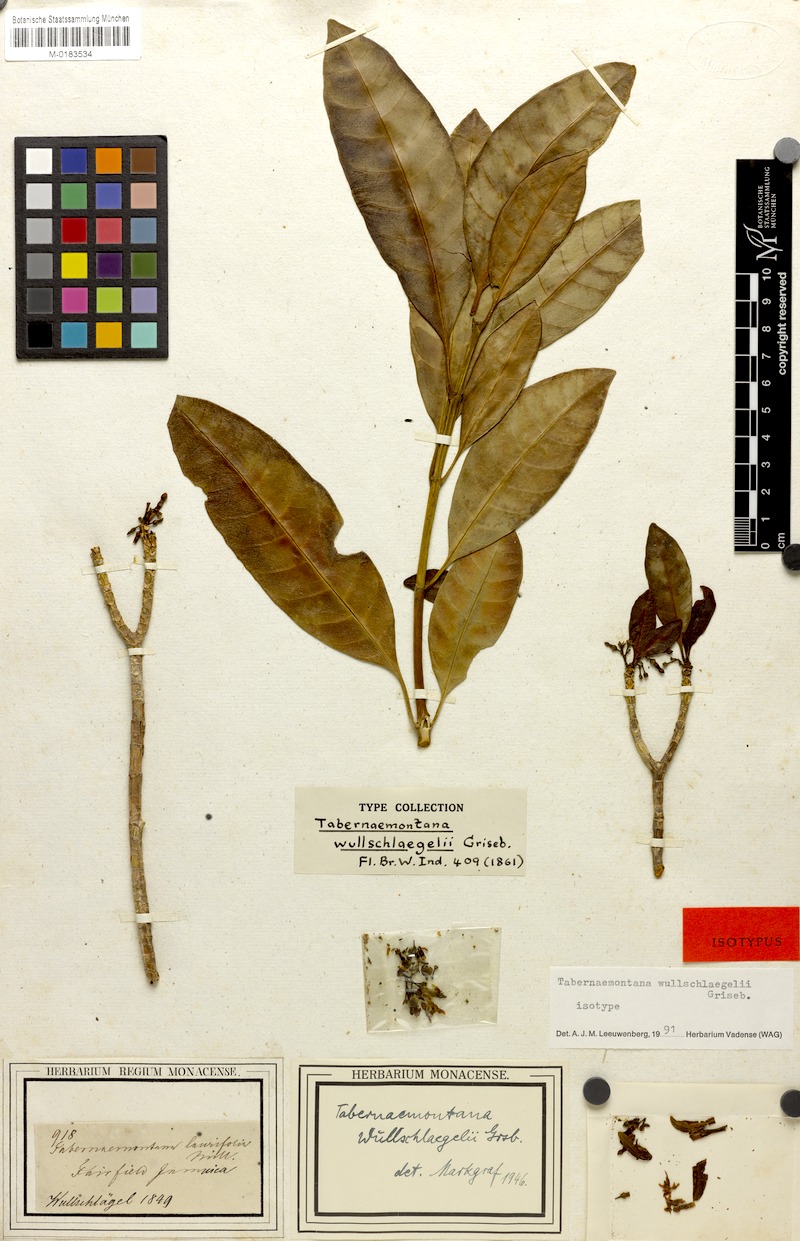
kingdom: Plantae
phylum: Tracheophyta
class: Magnoliopsida
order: Gentianales
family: Apocynaceae
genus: Tabernaemontana
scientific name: Tabernaemontana wullschlaegelii
